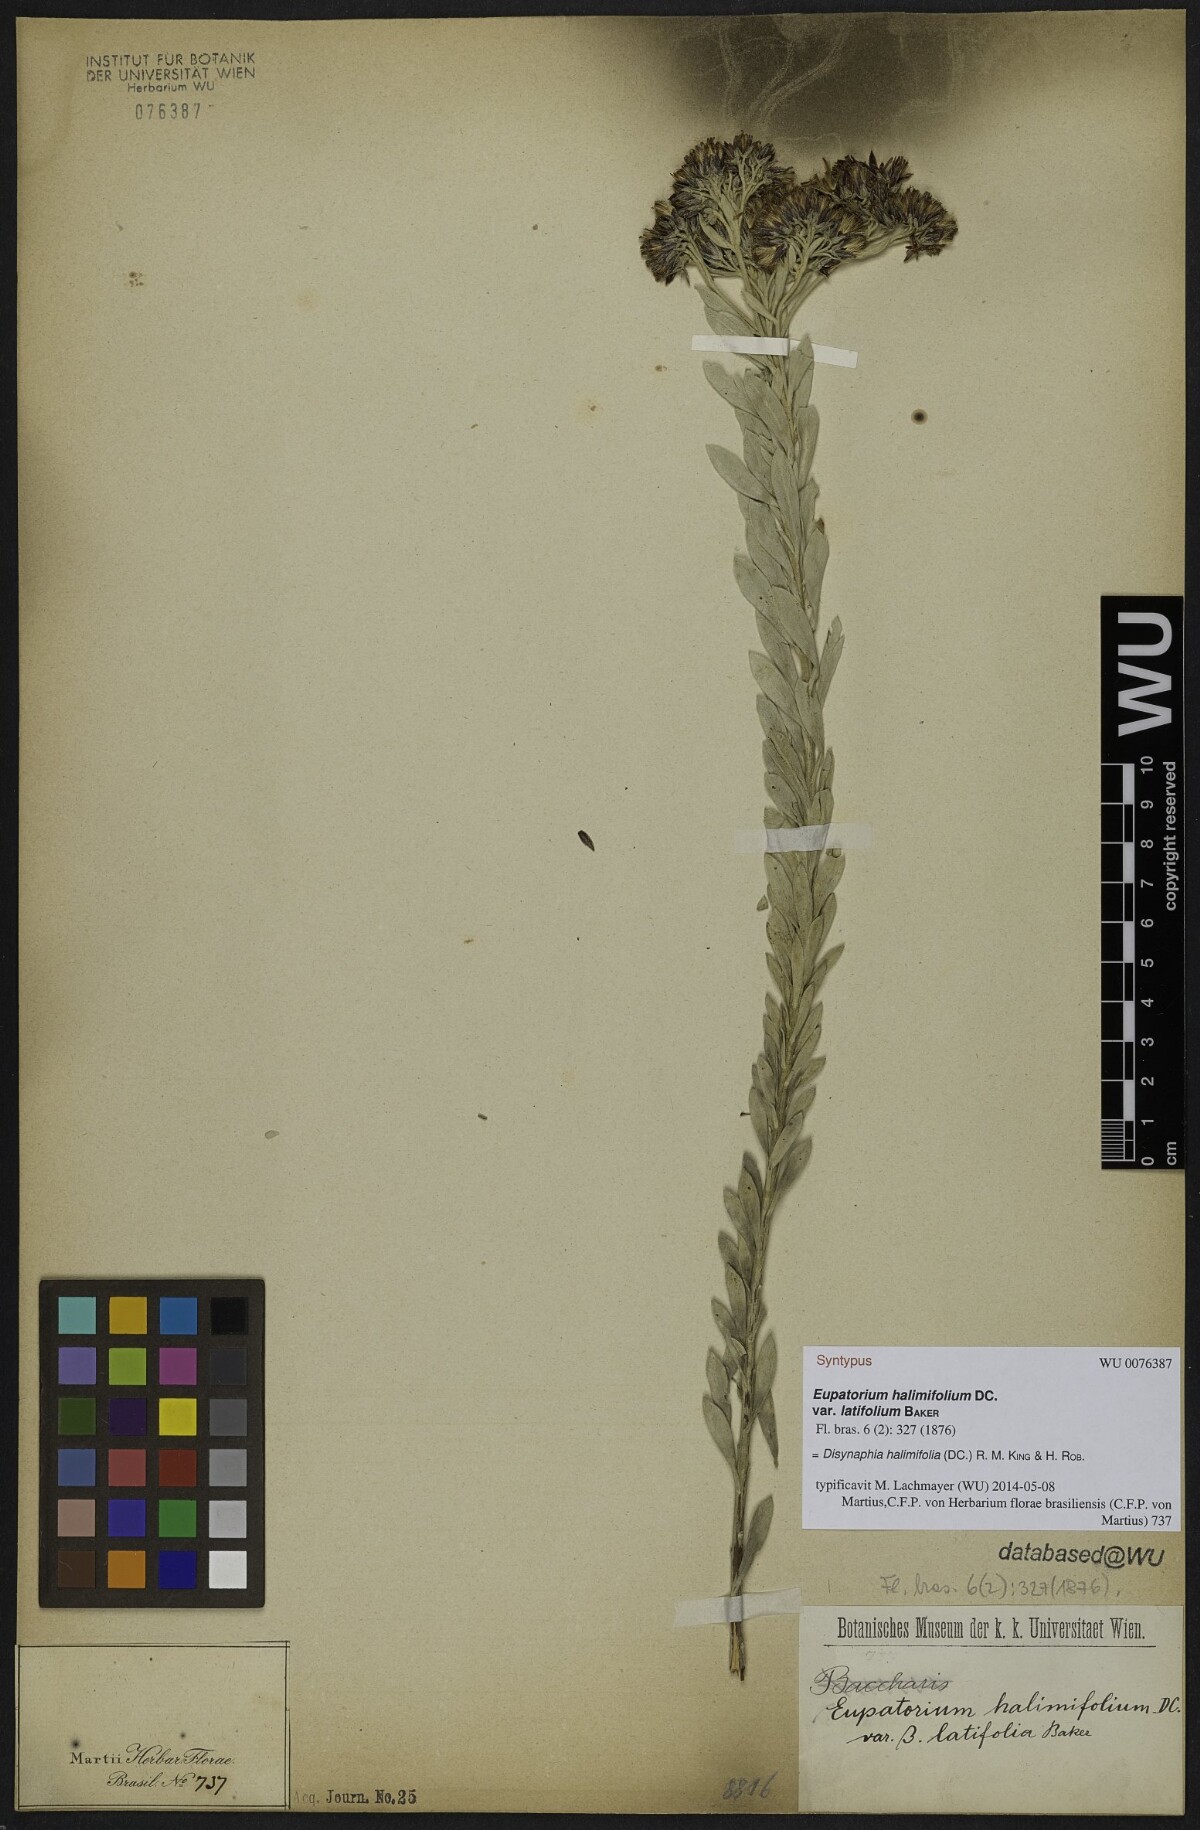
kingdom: Plantae
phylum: Tracheophyta
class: Magnoliopsida
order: Asterales
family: Asteraceae
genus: Disynaphia
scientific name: Disynaphia halimifolia
